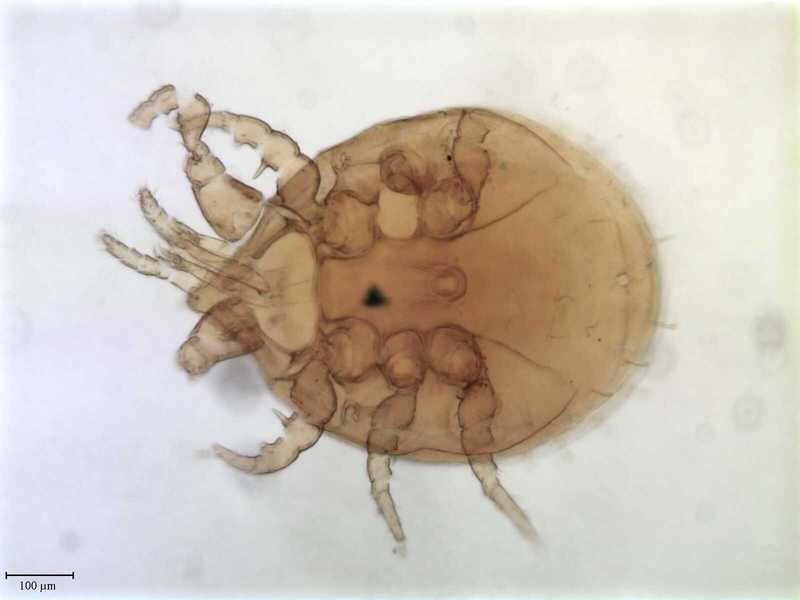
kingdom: Animalia
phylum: Arthropoda
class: Arachnida
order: Mesostigmata
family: Uropodidae
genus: Uroobovella
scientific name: Uroobovella kraussei
